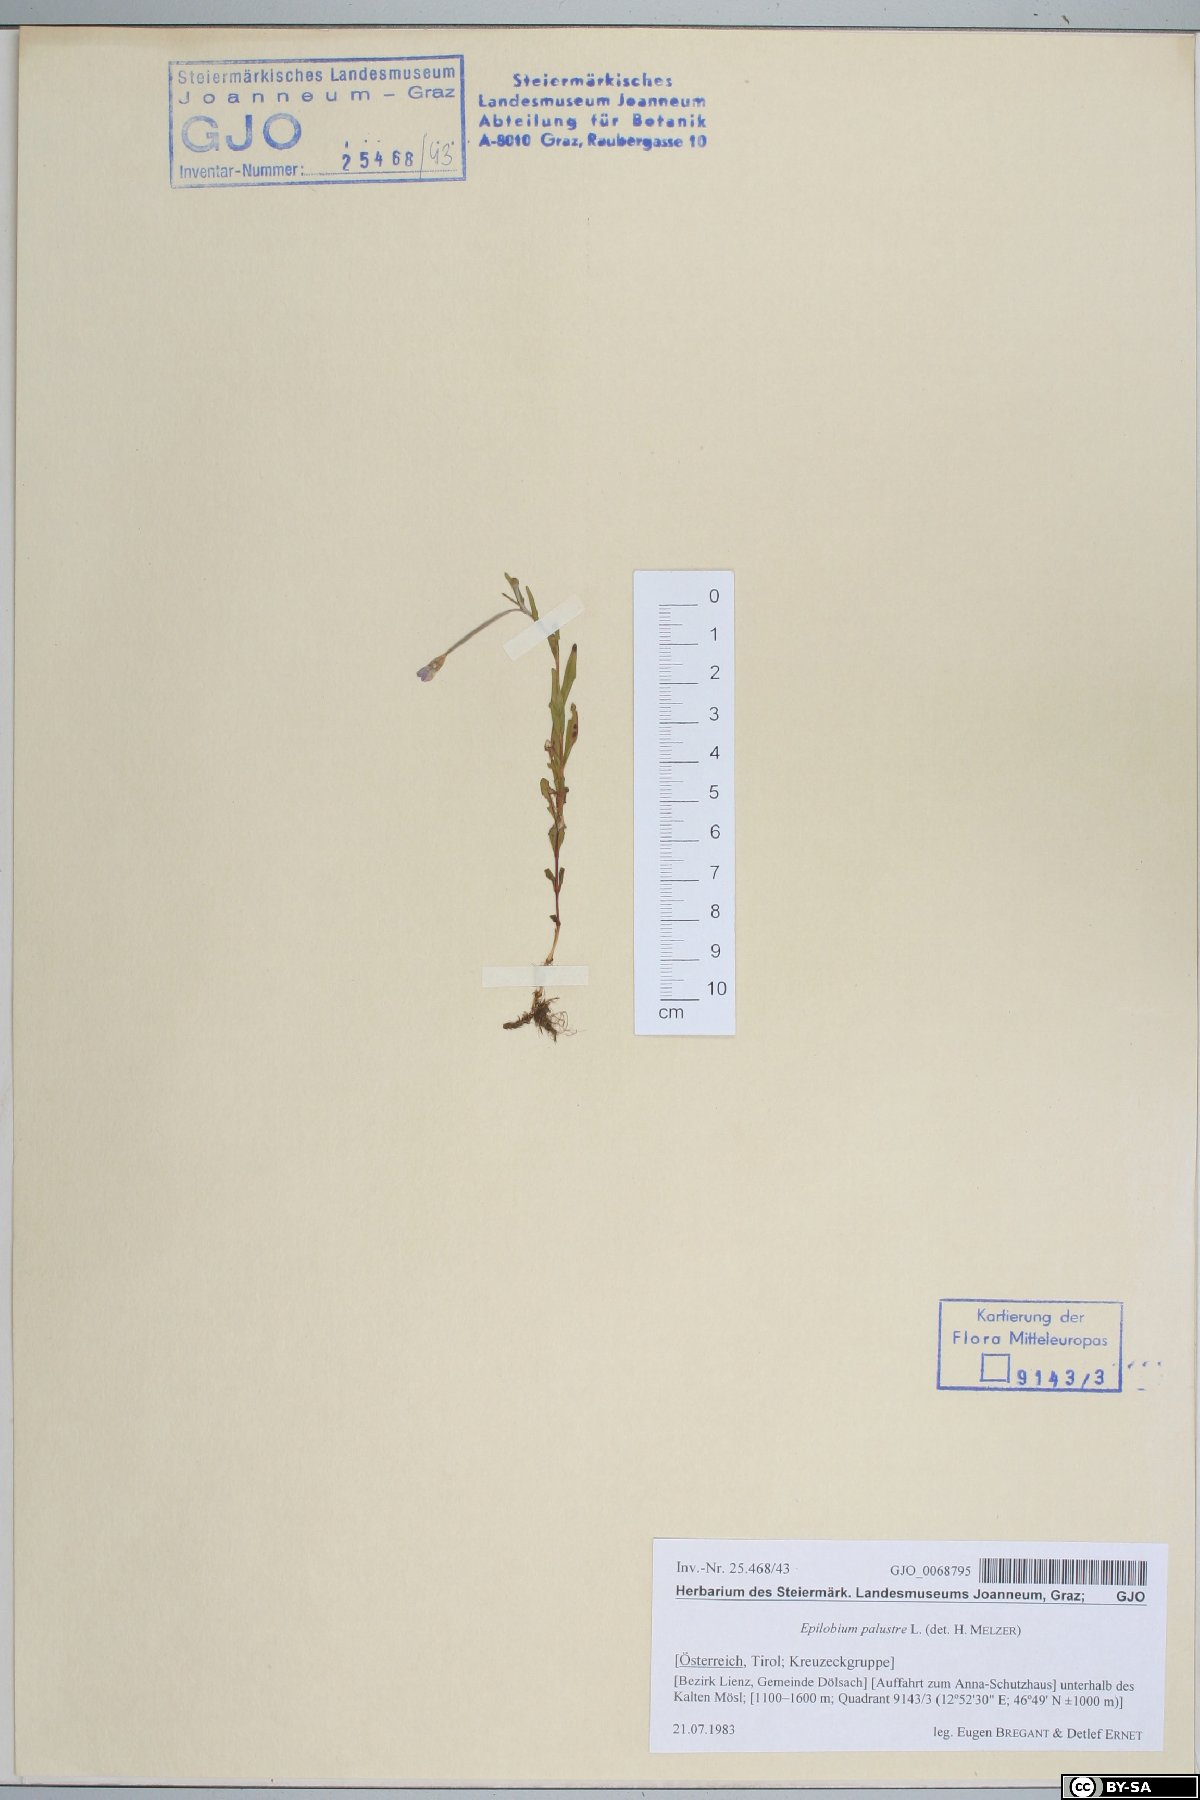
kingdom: Plantae
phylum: Tracheophyta
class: Magnoliopsida
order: Myrtales
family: Onagraceae
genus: Epilobium
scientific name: Epilobium palustre
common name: Marsh willowherb
